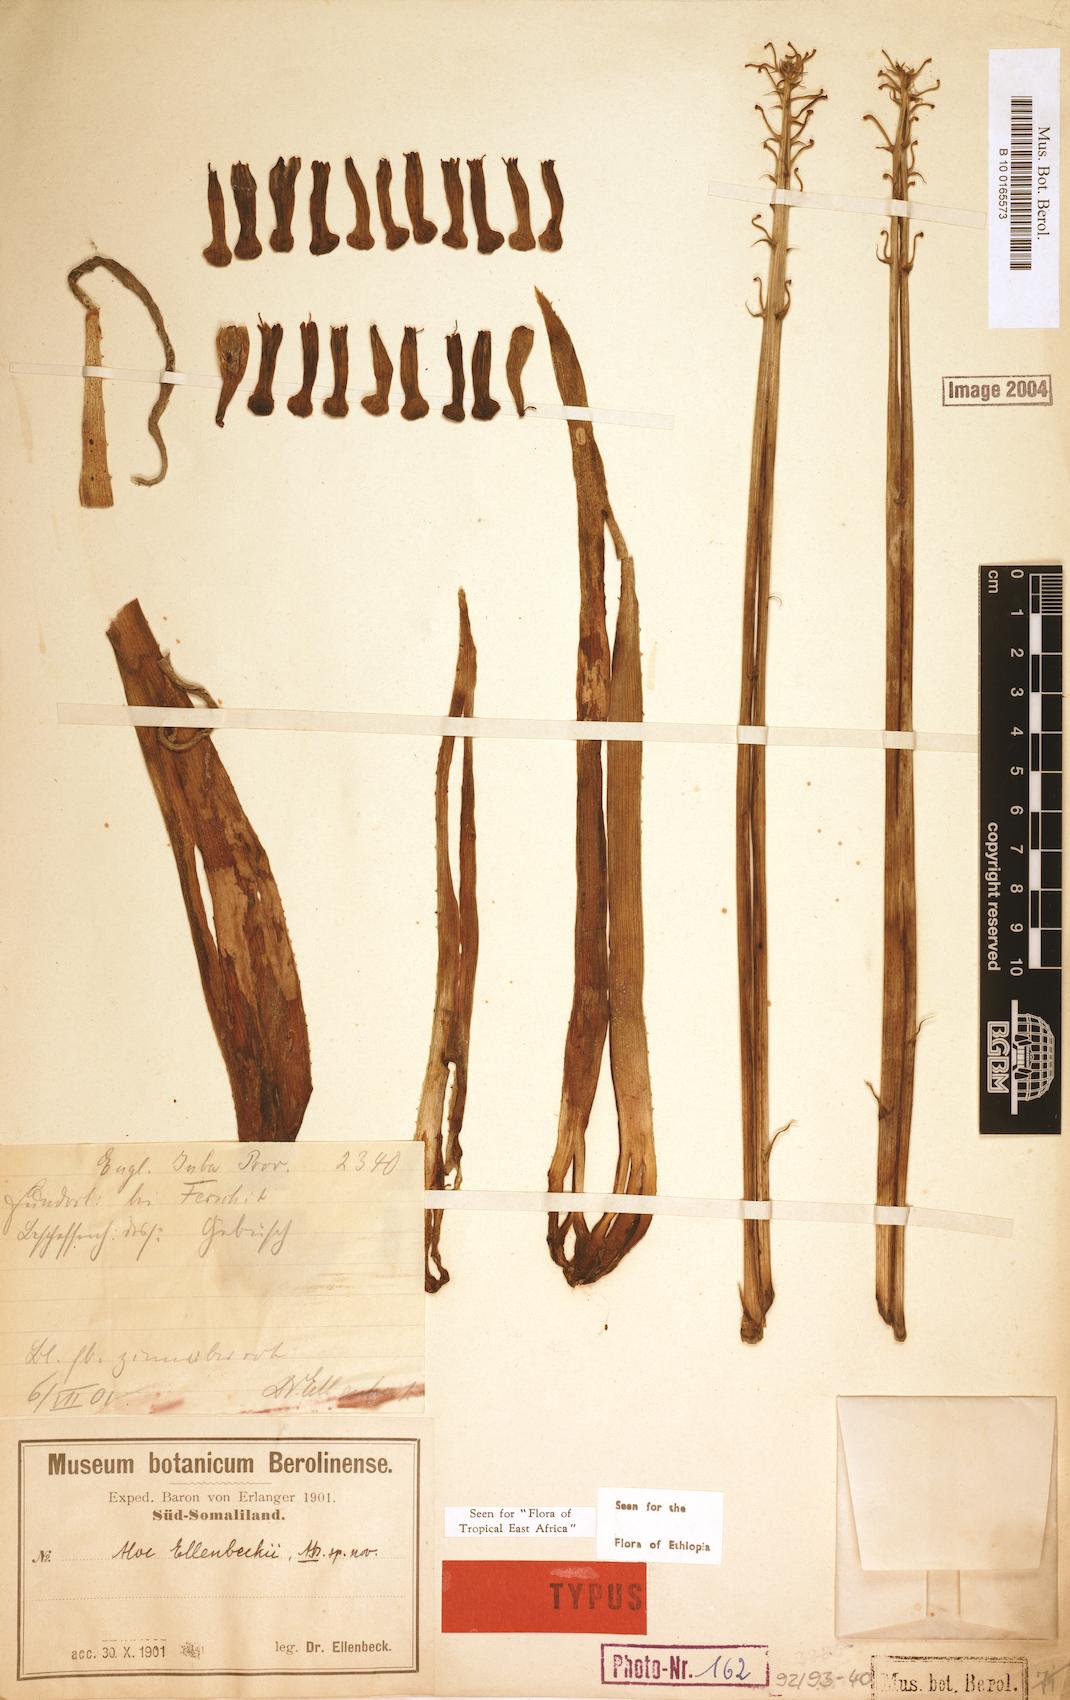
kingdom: Plantae
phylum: Tracheophyta
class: Liliopsida
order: Asparagales
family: Asphodelaceae
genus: Aloe
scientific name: Aloe ellenbeckii
